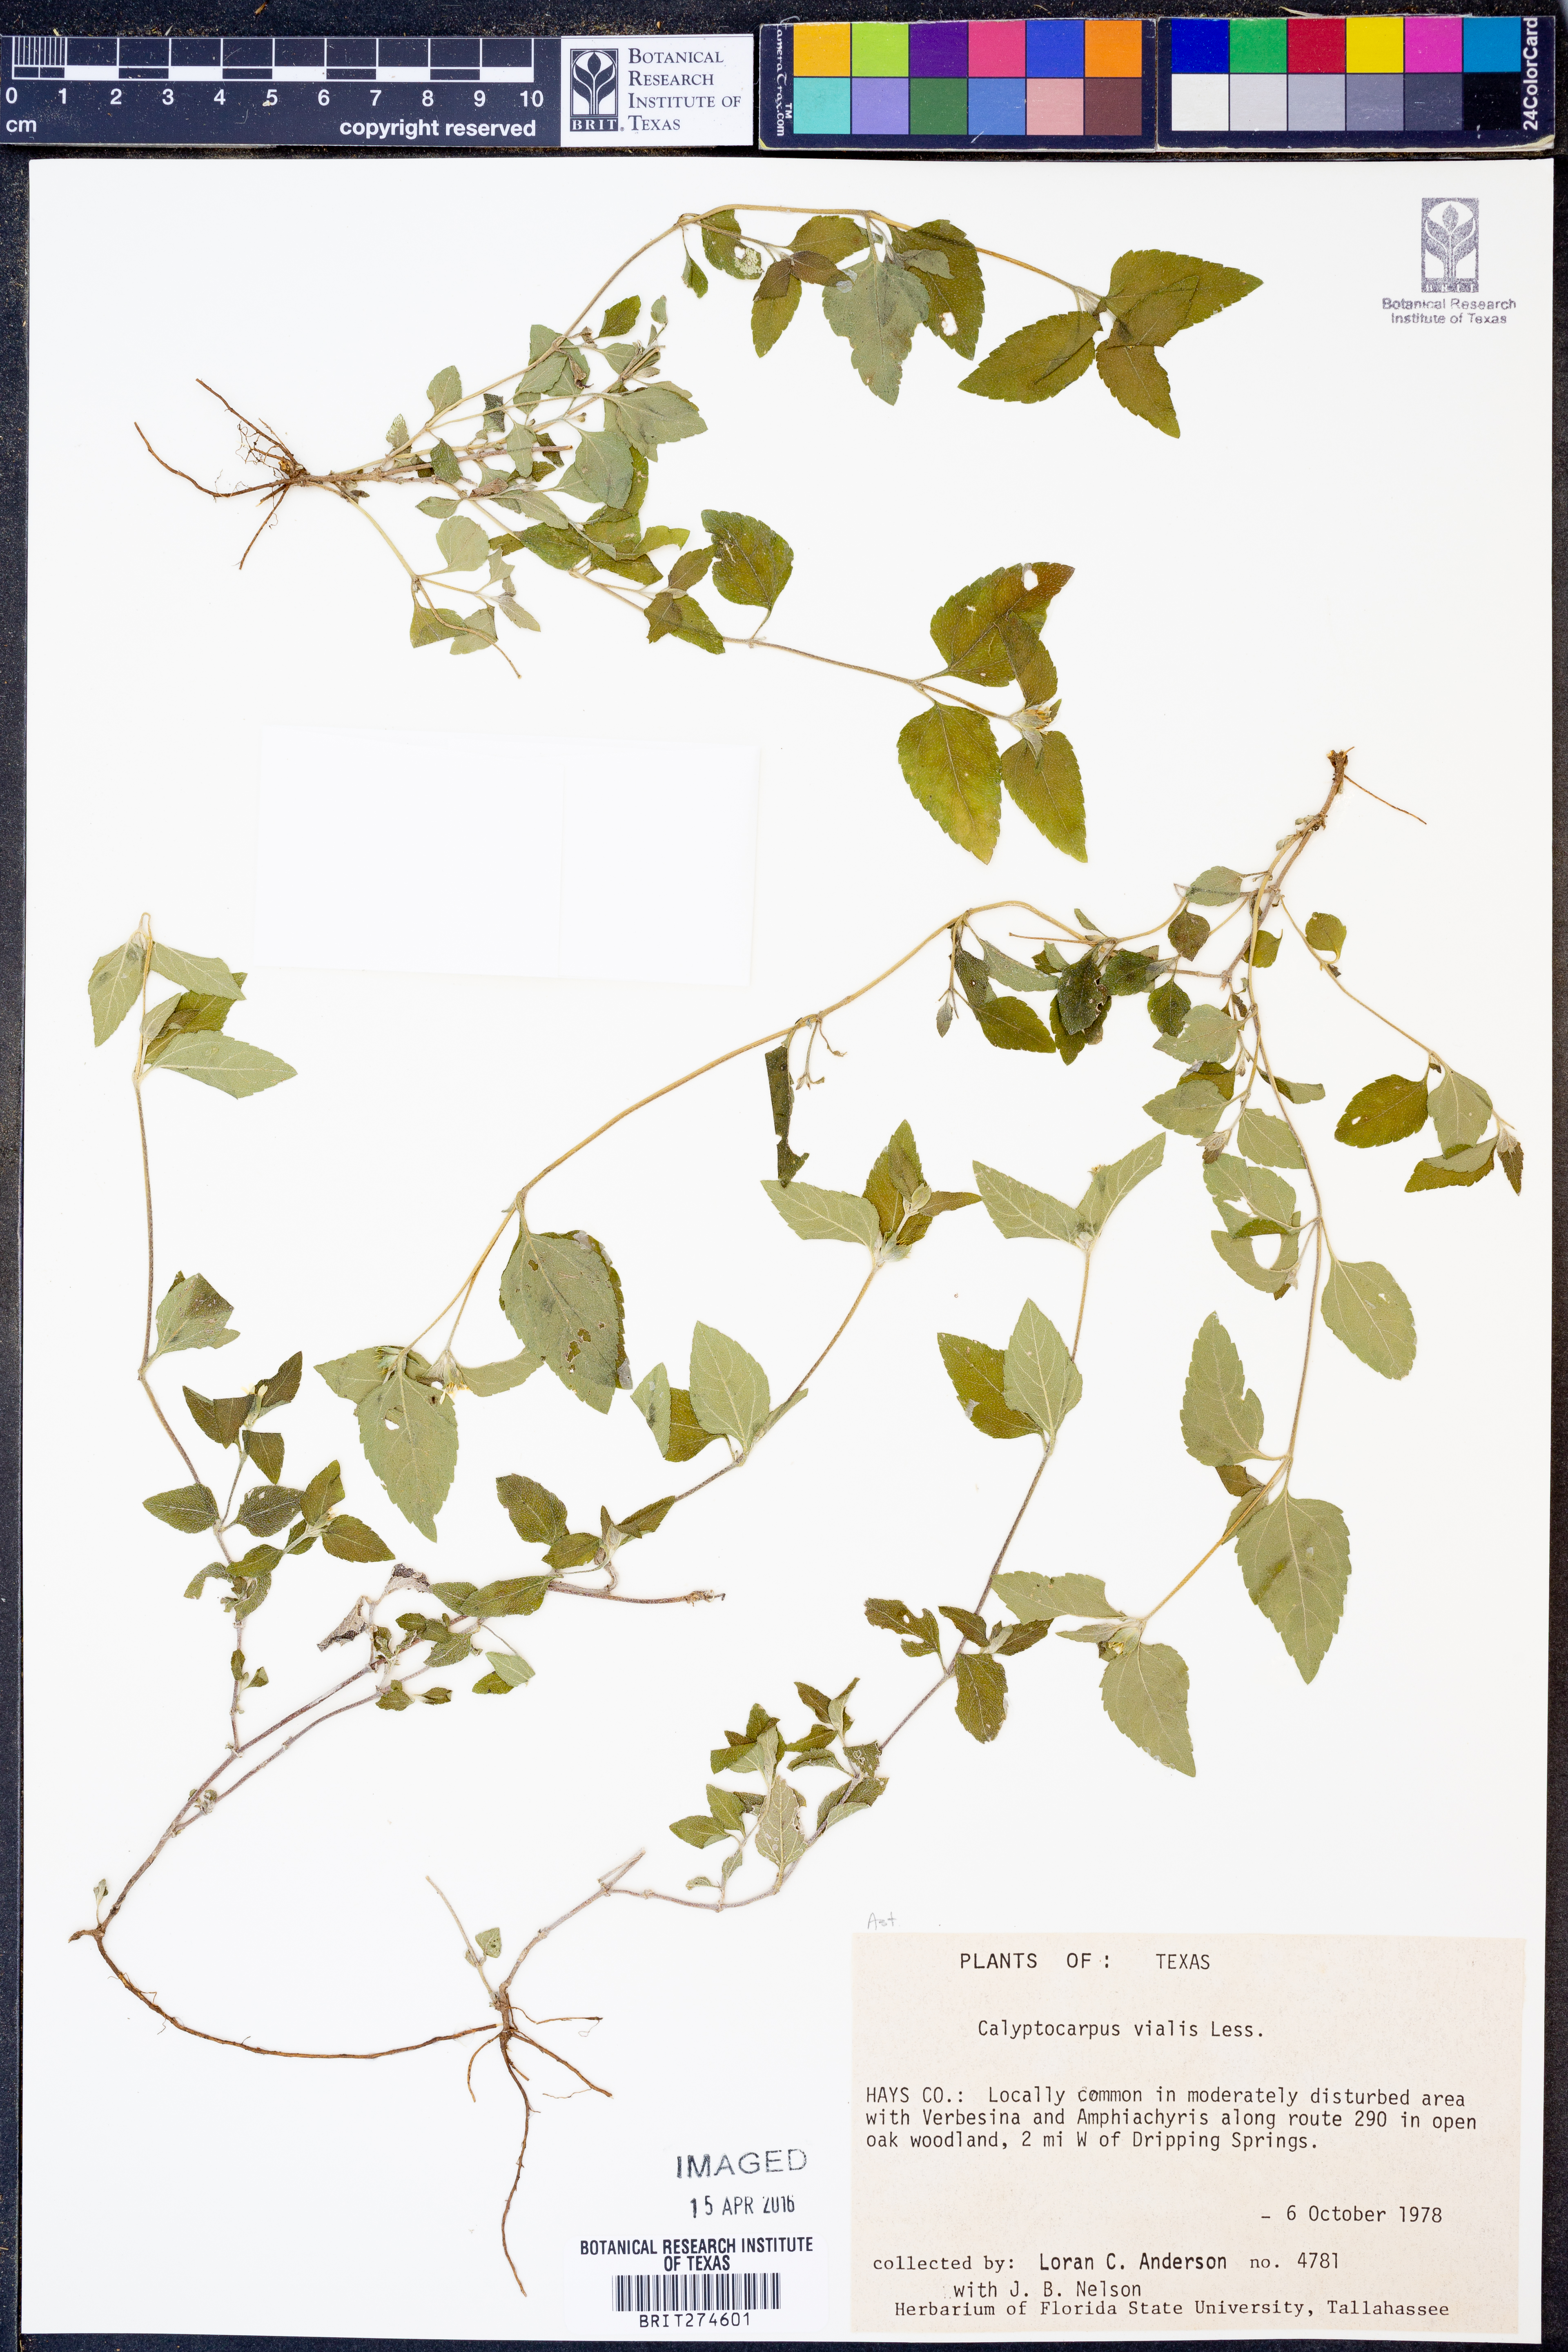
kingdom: Plantae
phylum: Tracheophyta
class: Magnoliopsida
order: Asterales
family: Asteraceae
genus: Calyptocarpus
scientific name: Calyptocarpus vialis
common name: Straggler daisy
